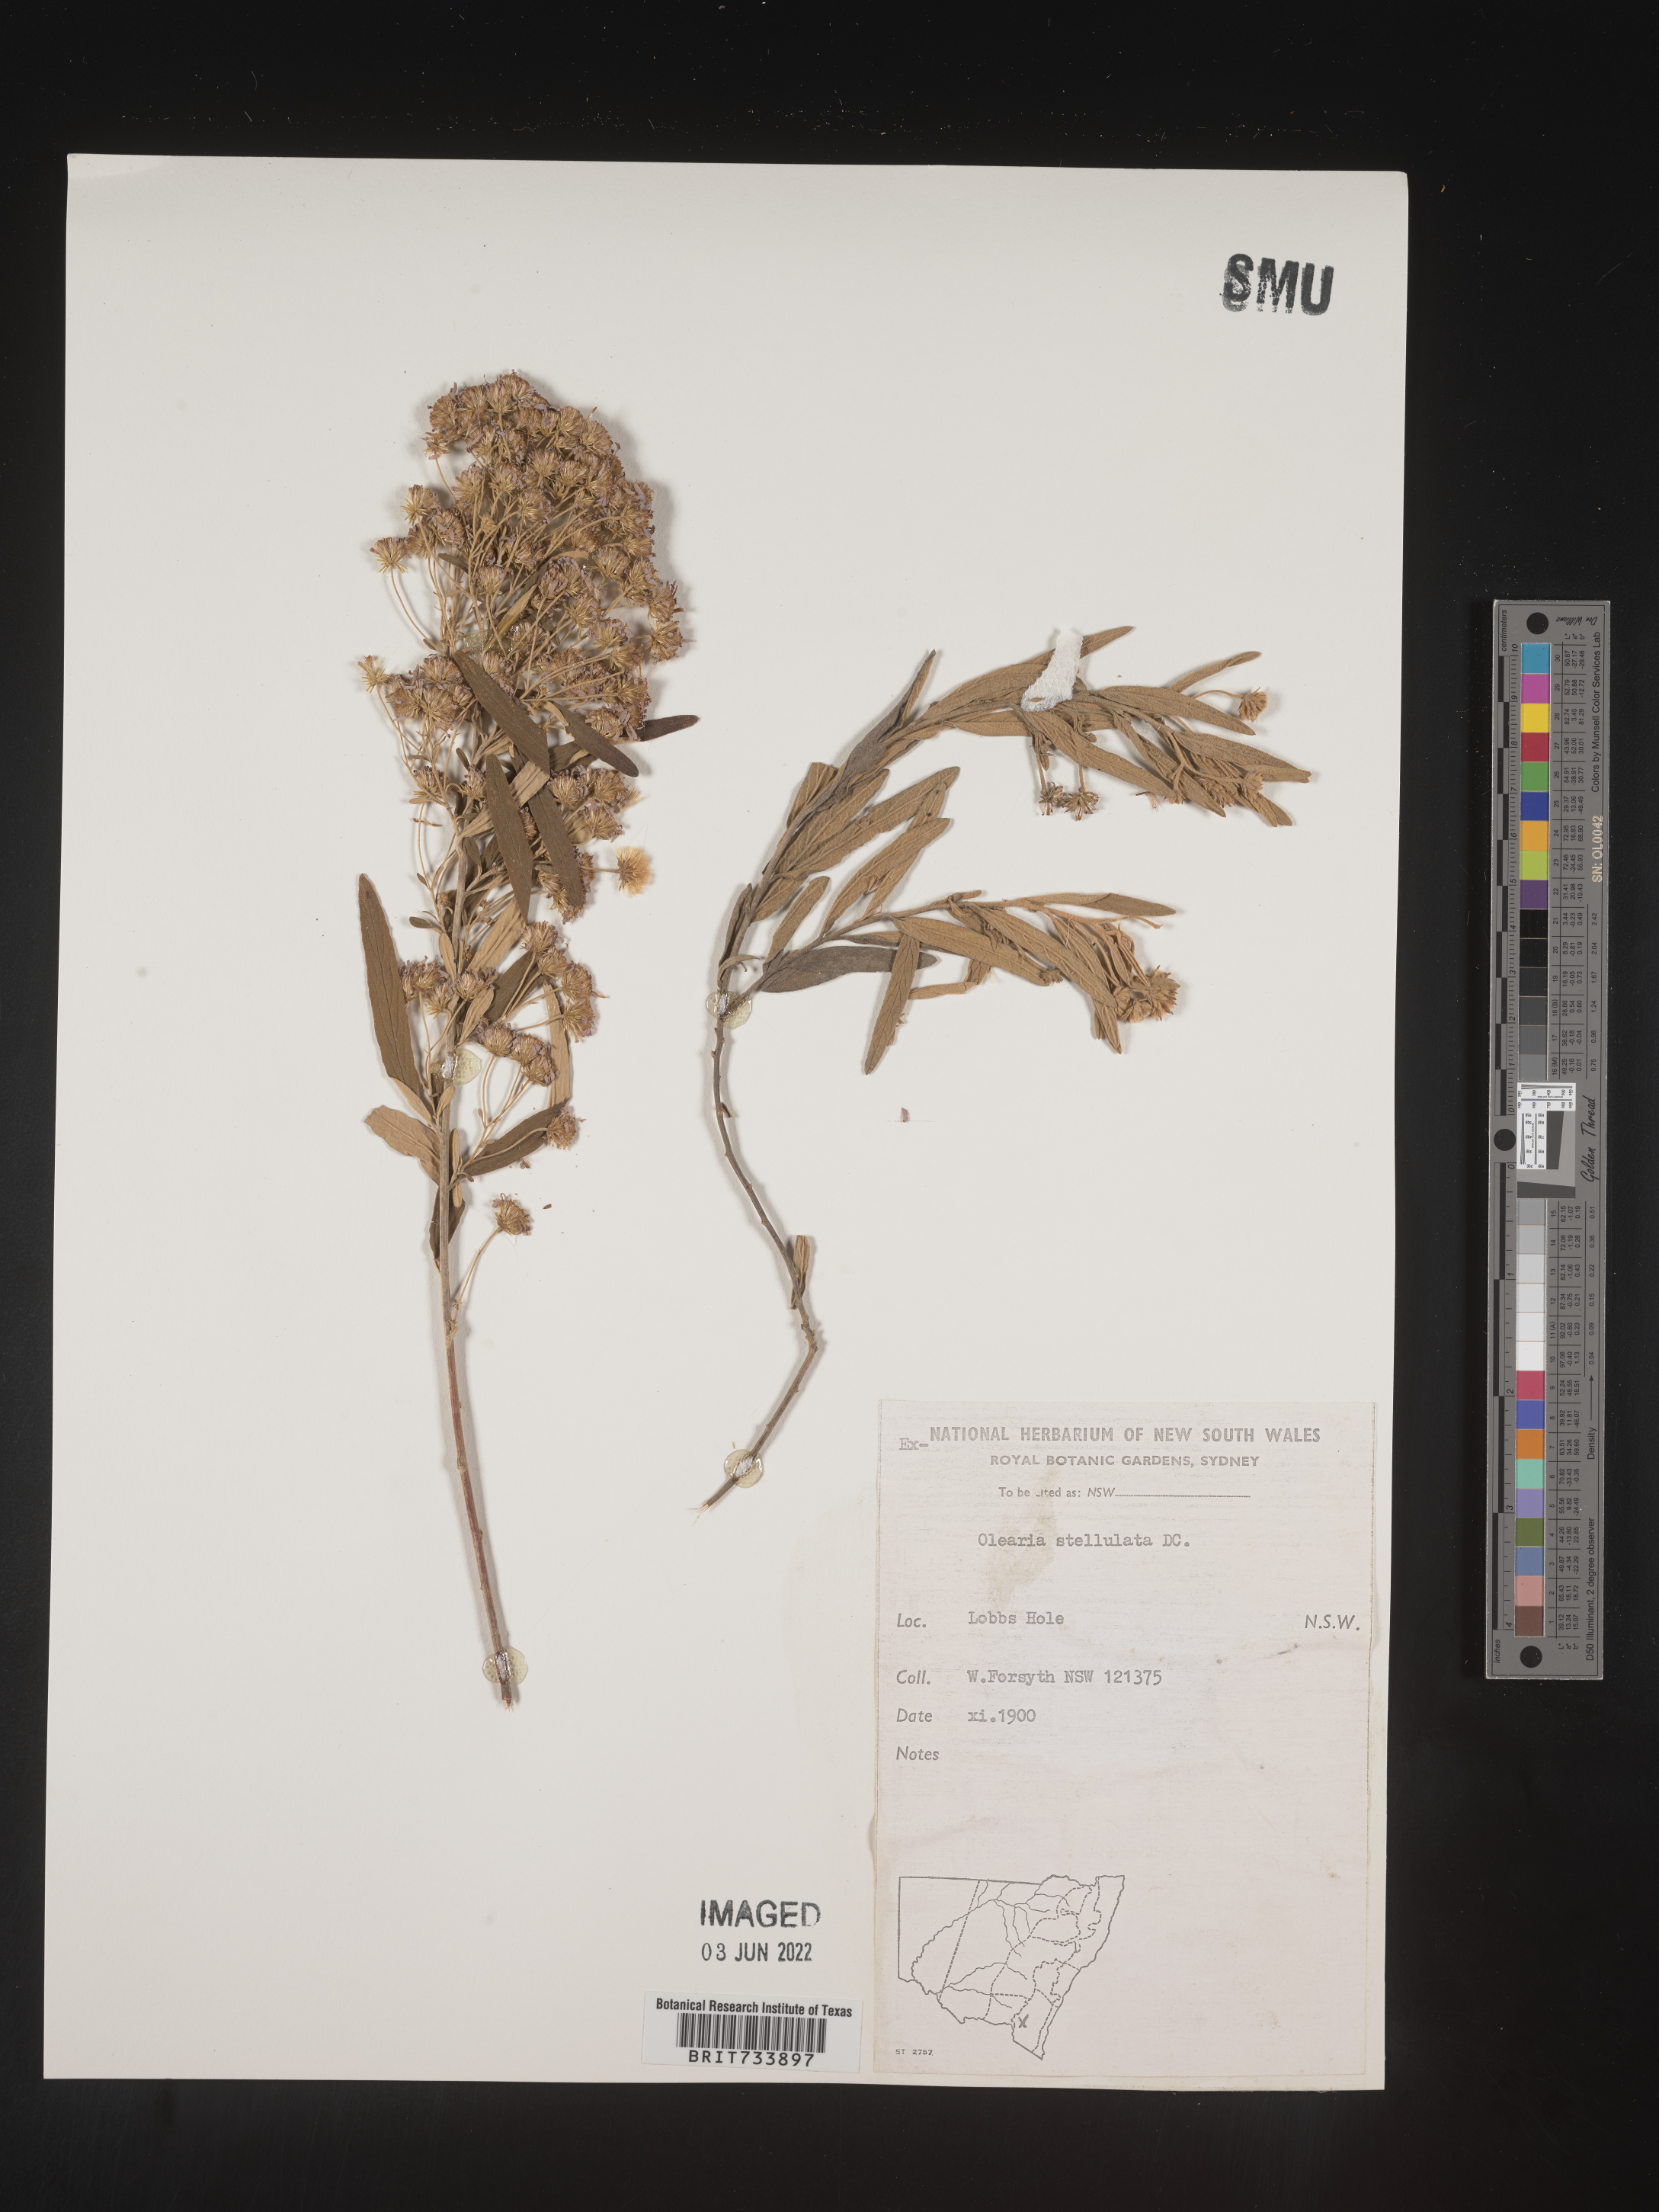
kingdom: Plantae
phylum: Tracheophyta
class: Magnoliopsida
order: Asterales
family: Asteraceae
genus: Olearia
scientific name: Olearia
